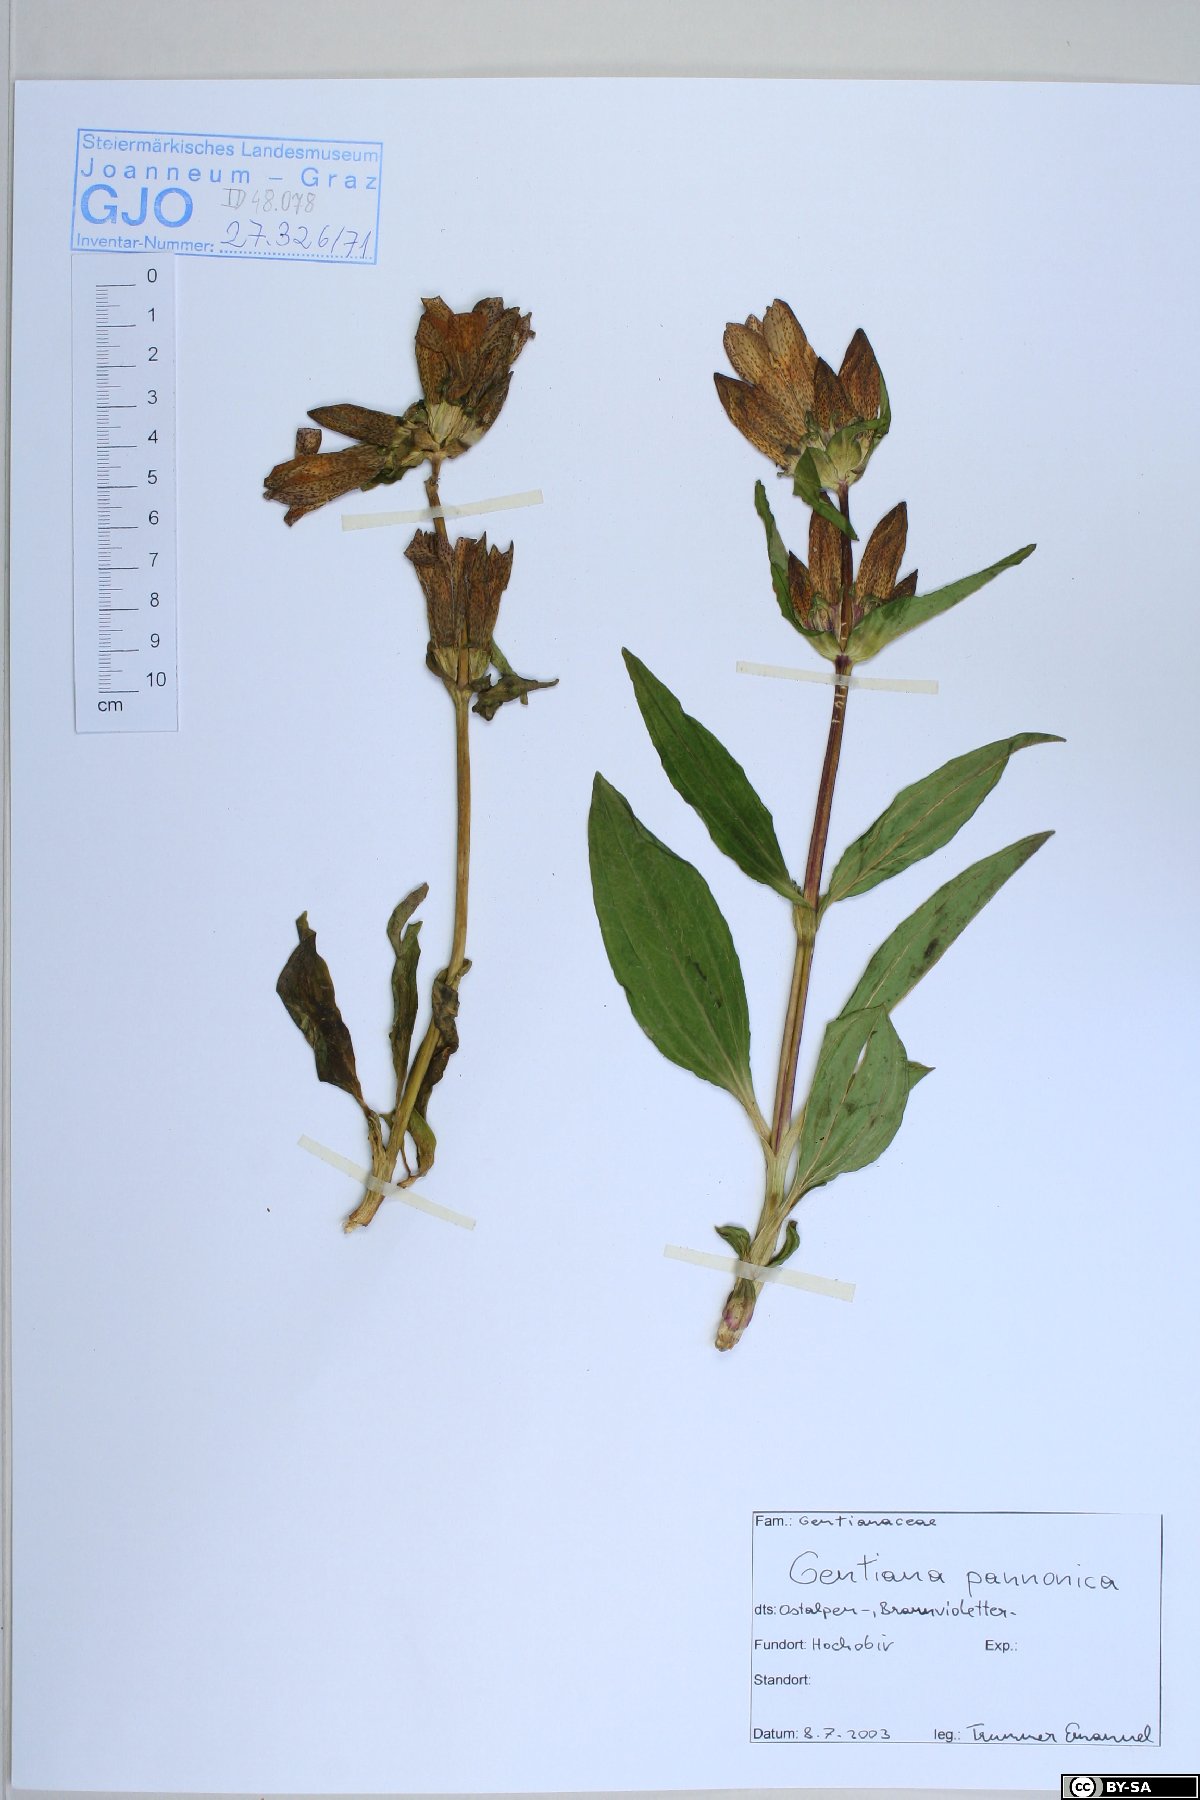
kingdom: Plantae
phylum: Tracheophyta
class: Magnoliopsida
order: Gentianales
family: Gentianaceae
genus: Gentiana
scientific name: Gentiana pannonica
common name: Hungarian gentian
